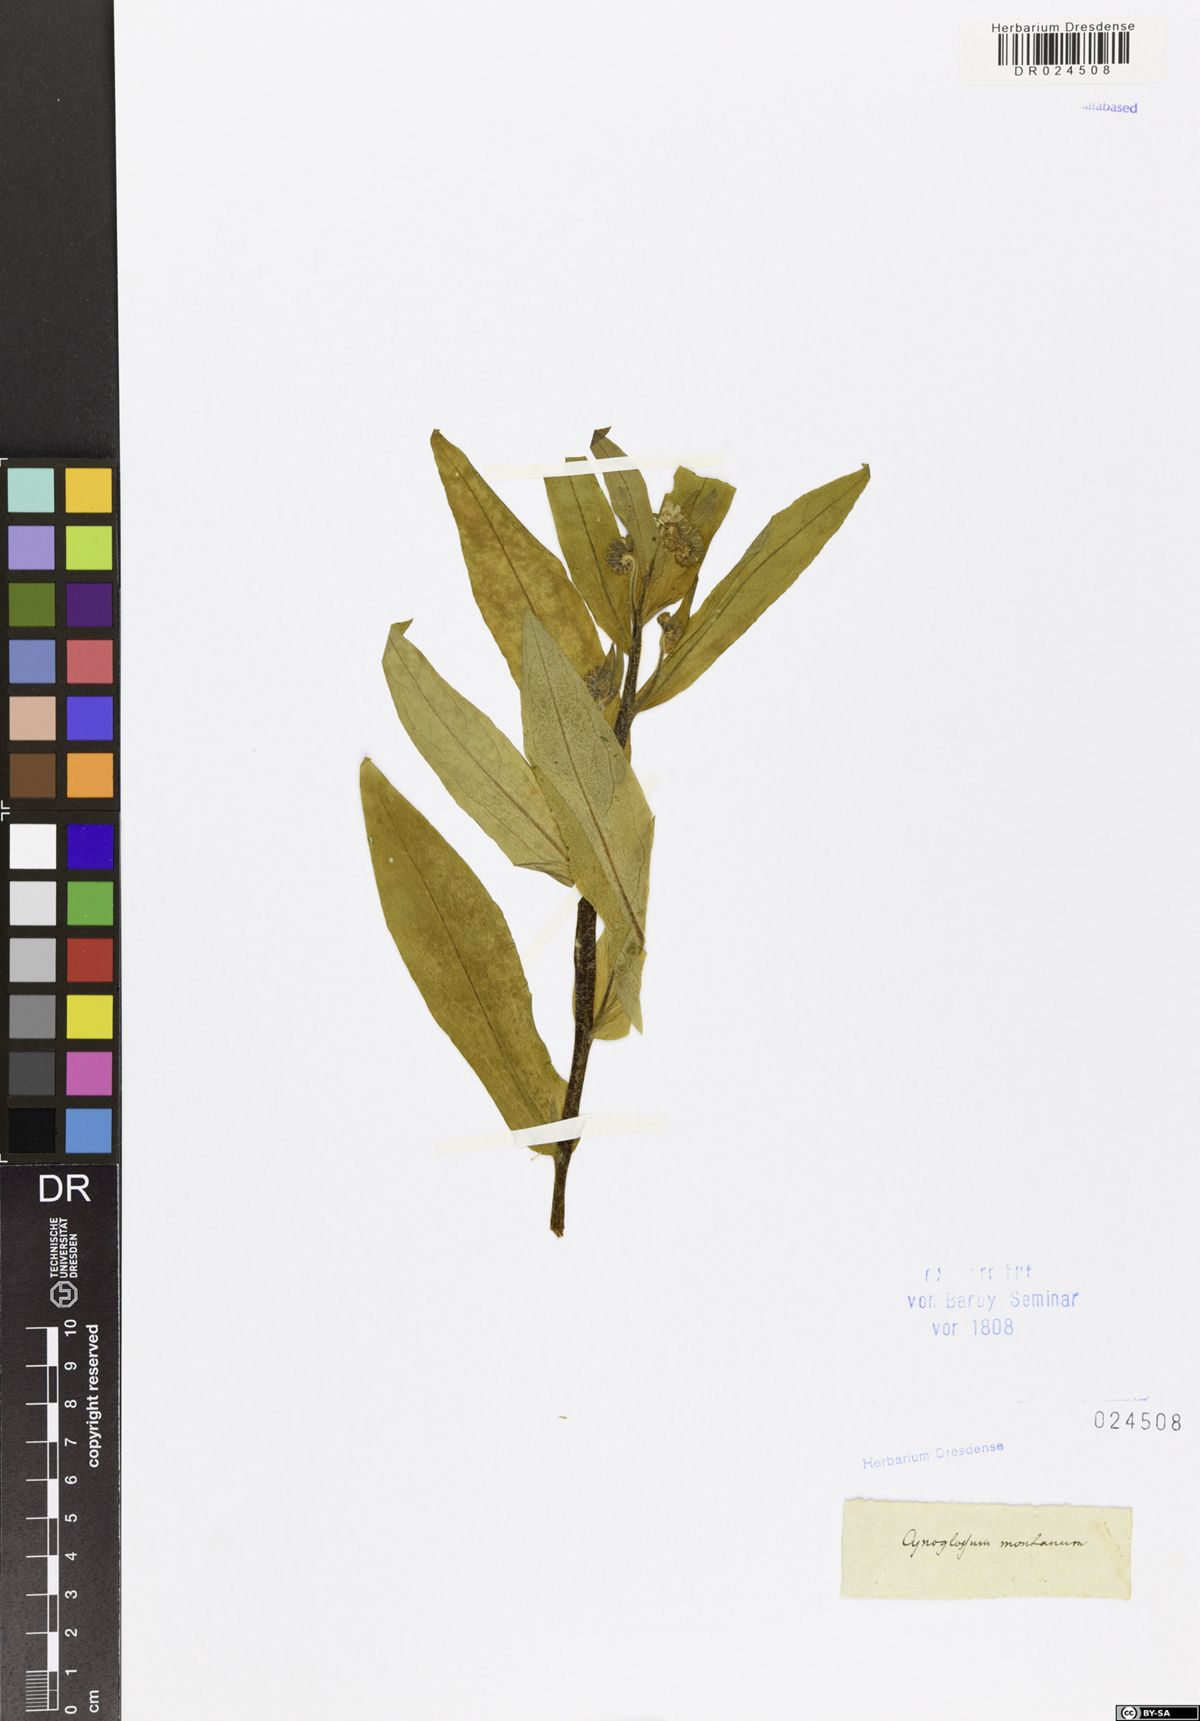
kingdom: Plantae
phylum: Tracheophyta
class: Magnoliopsida
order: Boraginales
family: Boraginaceae
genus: Cynoglossum
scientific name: Cynoglossum montanum
